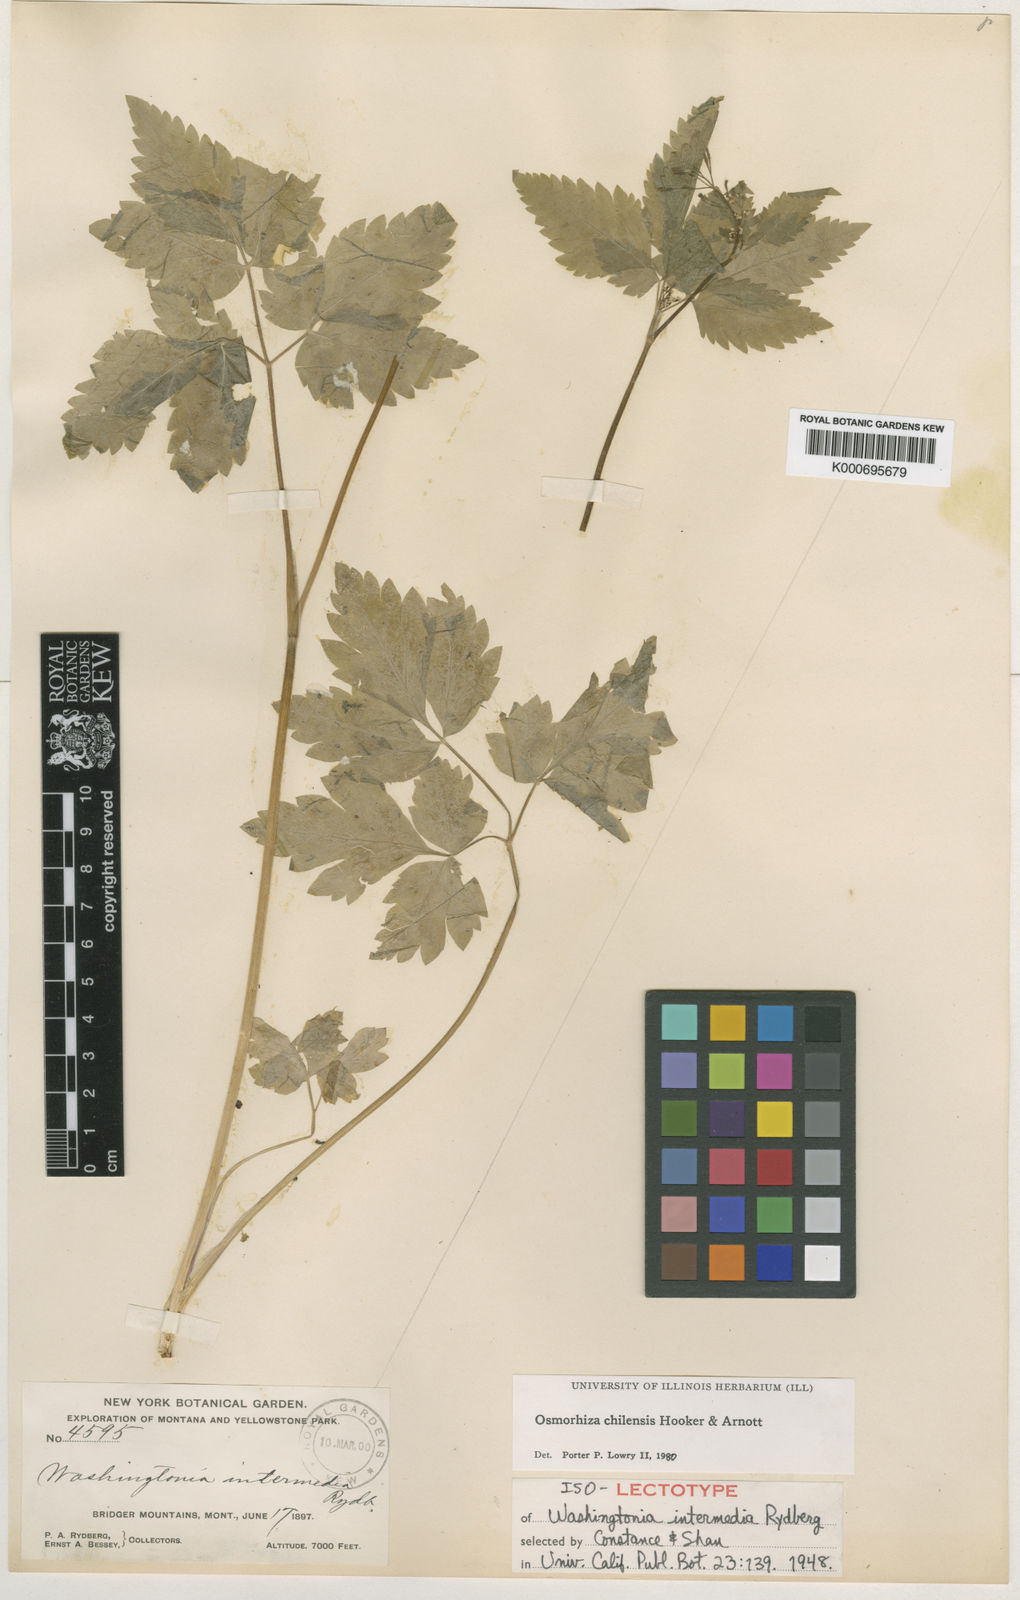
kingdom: Plantae
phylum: Tracheophyta
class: Magnoliopsida
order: Apiales
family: Apiaceae
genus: Osmorhiza
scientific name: Osmorhiza berteroi
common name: Mountain sweet cicely
